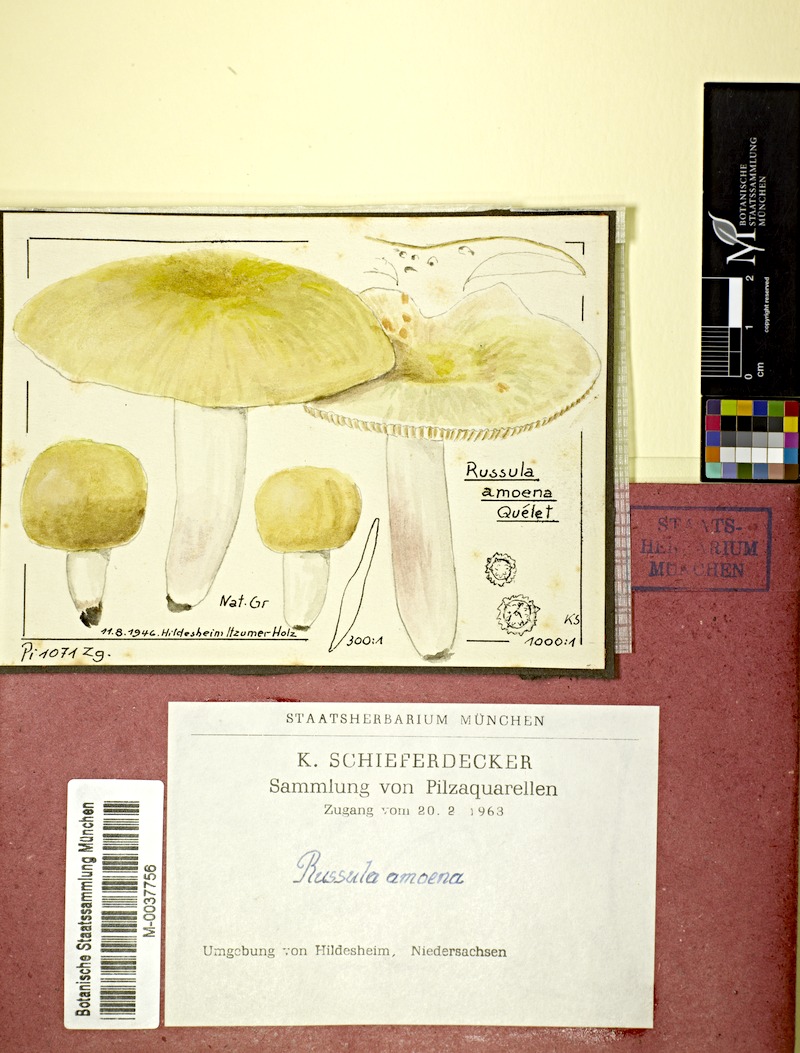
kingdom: Fungi
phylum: Basidiomycota
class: Agaricomycetes
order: Russulales
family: Russulaceae
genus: Russula
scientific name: Russula violeipes
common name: Velvet brittlegill
